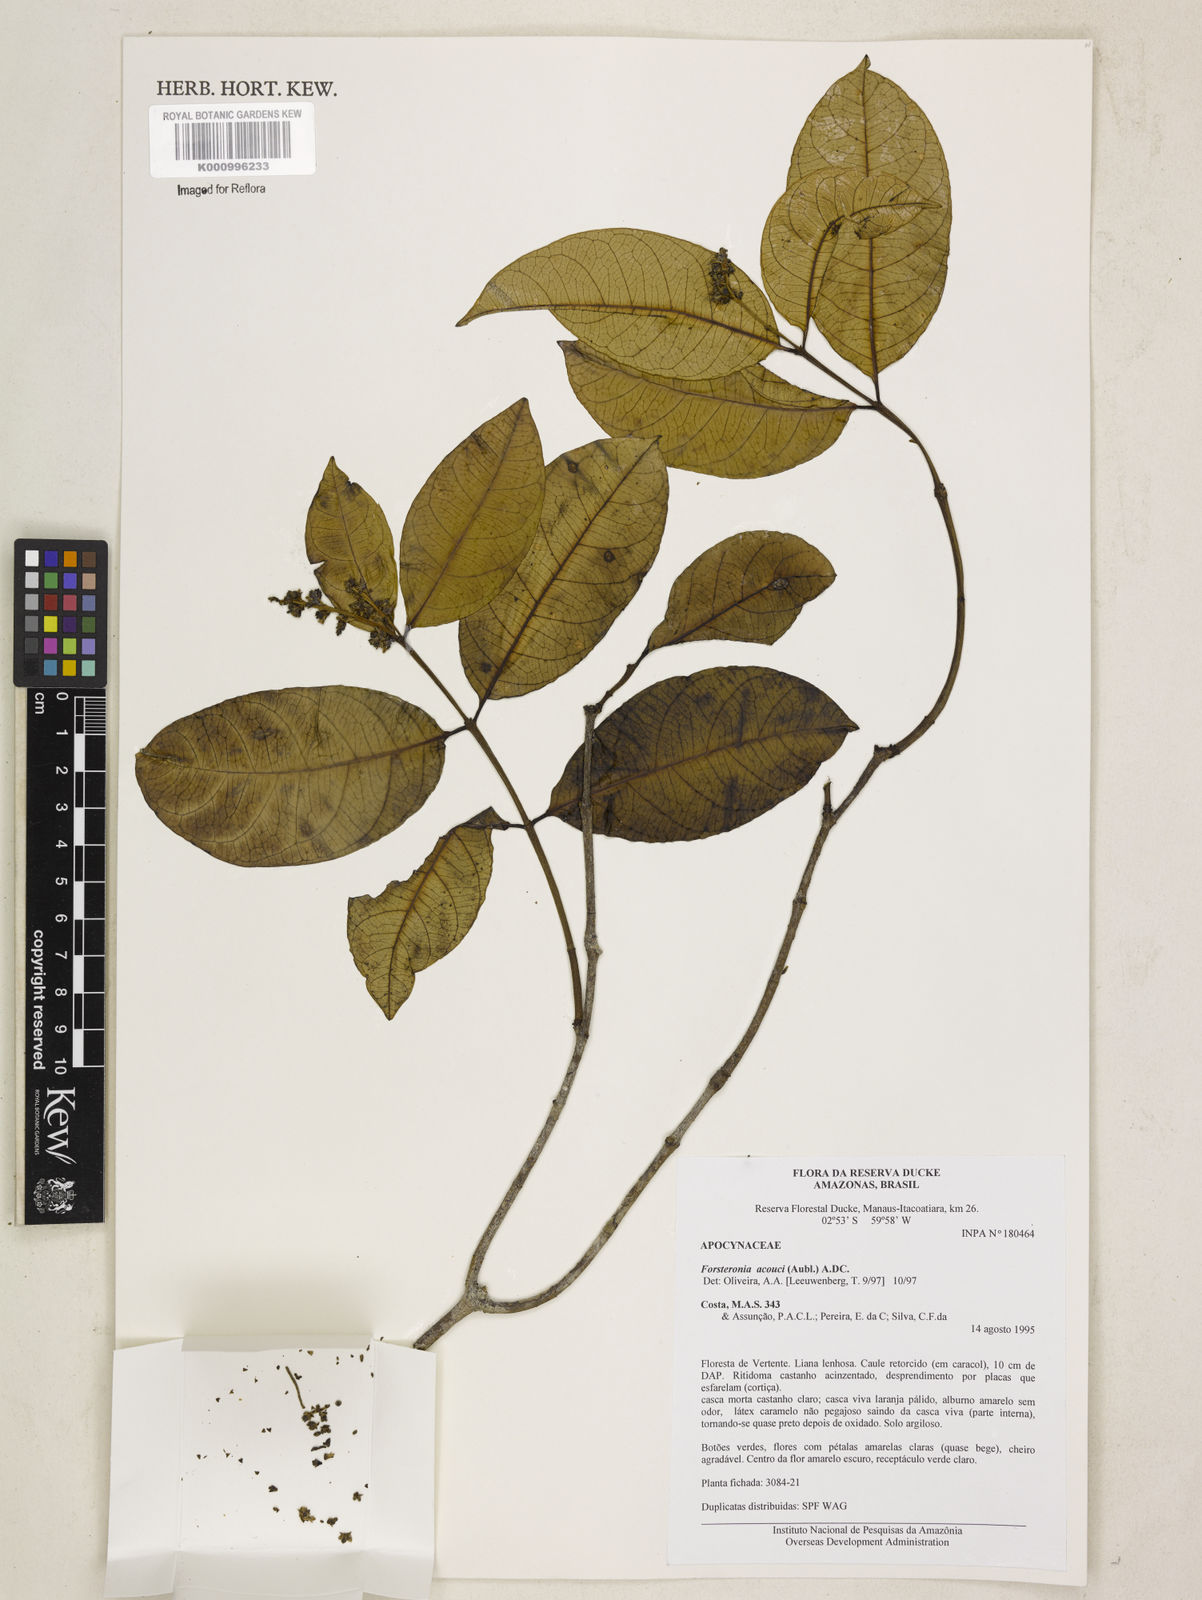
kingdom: Plantae
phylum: Tracheophyta
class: Magnoliopsida
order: Gentianales
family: Apocynaceae
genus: Forsteronia
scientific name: Forsteronia
